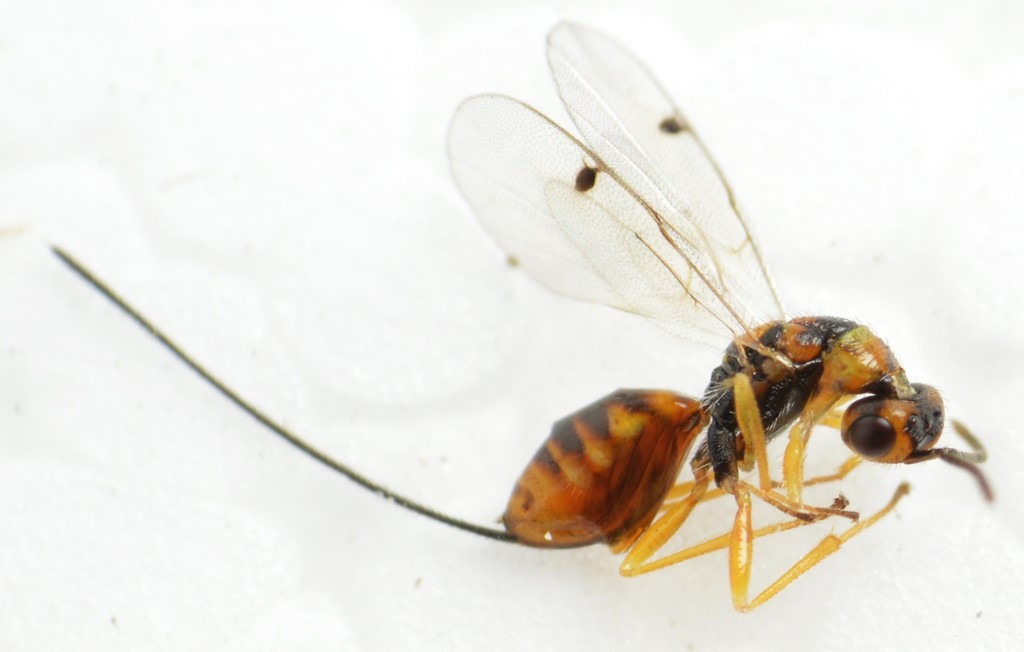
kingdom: Animalia
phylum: Arthropoda
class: Insecta
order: Hymenoptera
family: Torymidae
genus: Megastigmus
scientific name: Megastigmus aculeatus
